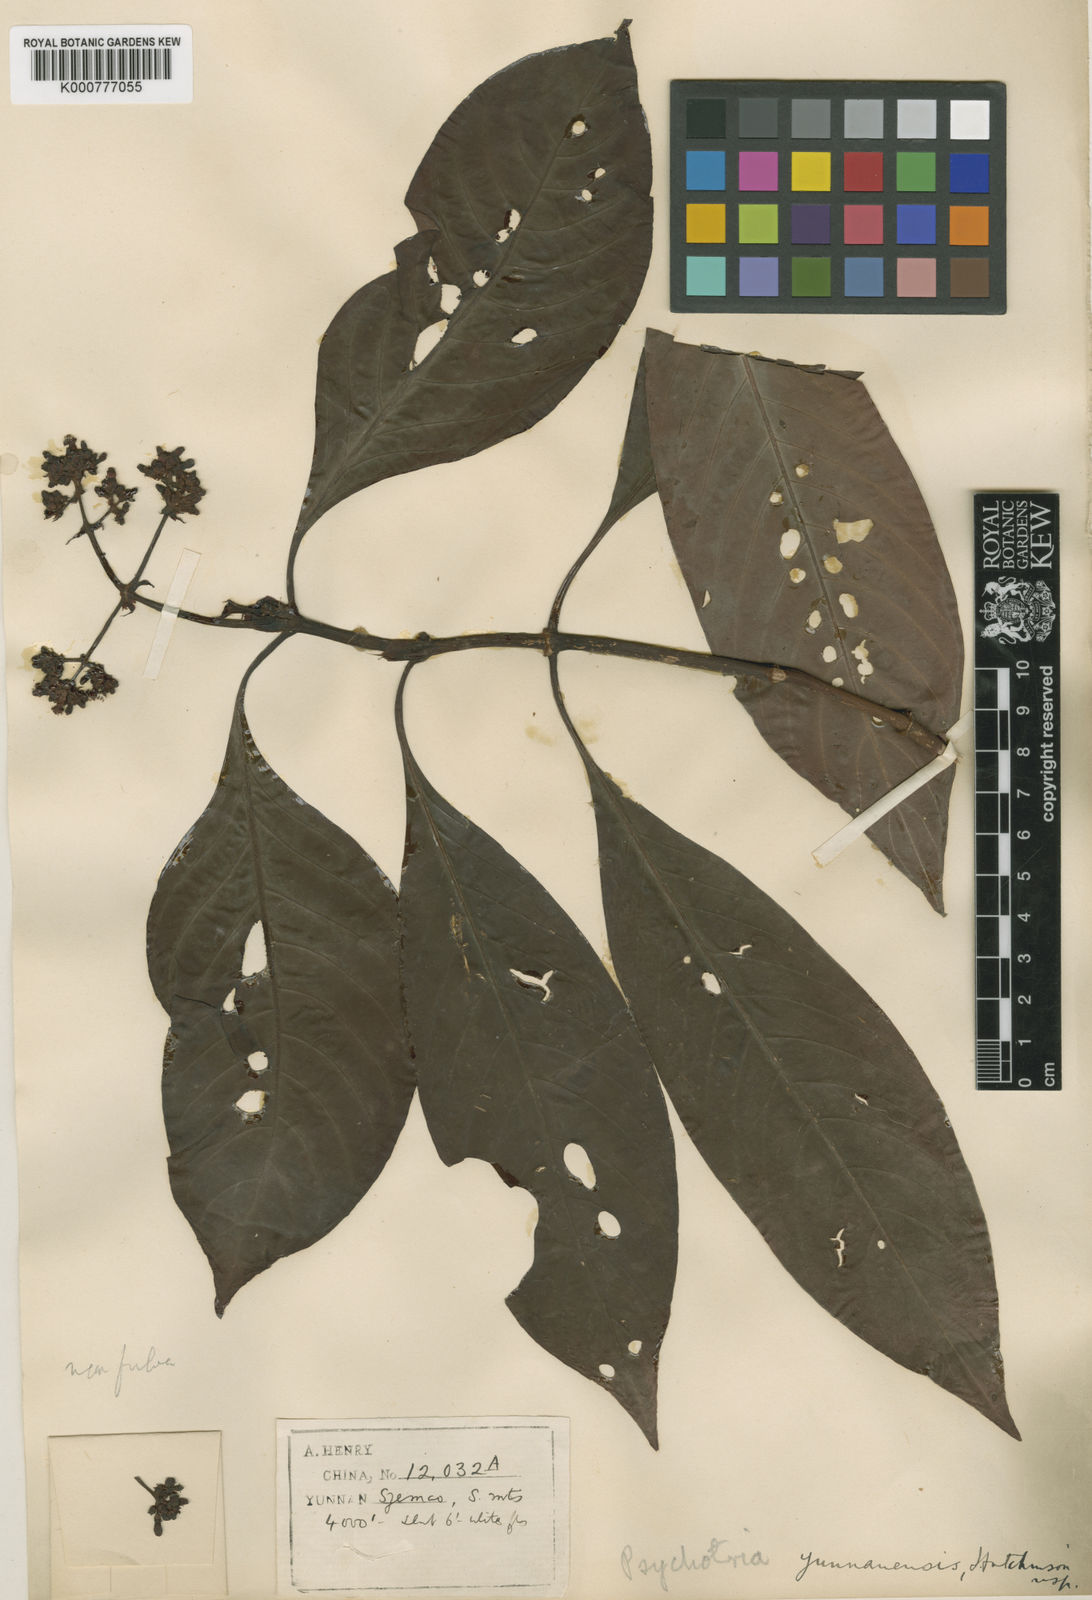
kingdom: Plantae
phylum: Tracheophyta
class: Magnoliopsida
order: Gentianales
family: Rubiaceae
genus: Psychotria
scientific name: Psychotria yunnanensis
